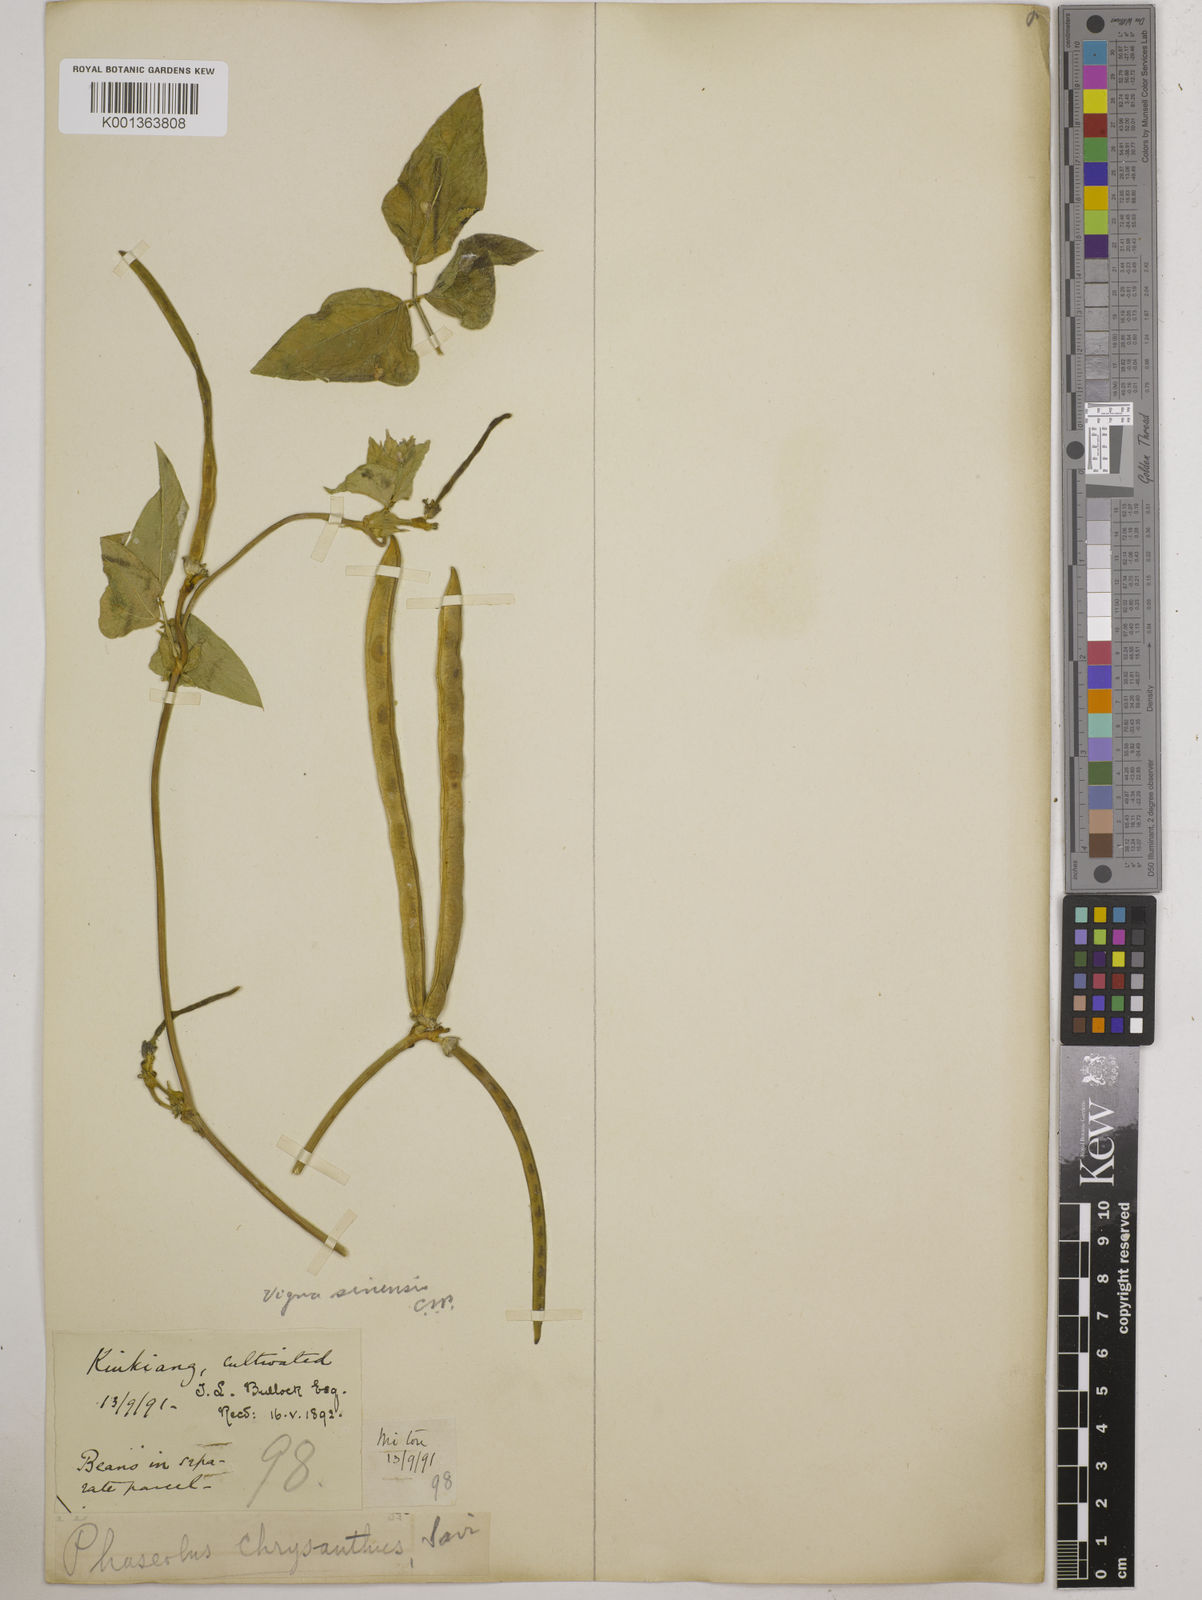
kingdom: Plantae
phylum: Tracheophyta
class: Magnoliopsida
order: Fabales
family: Fabaceae
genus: Vigna
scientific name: Vigna
